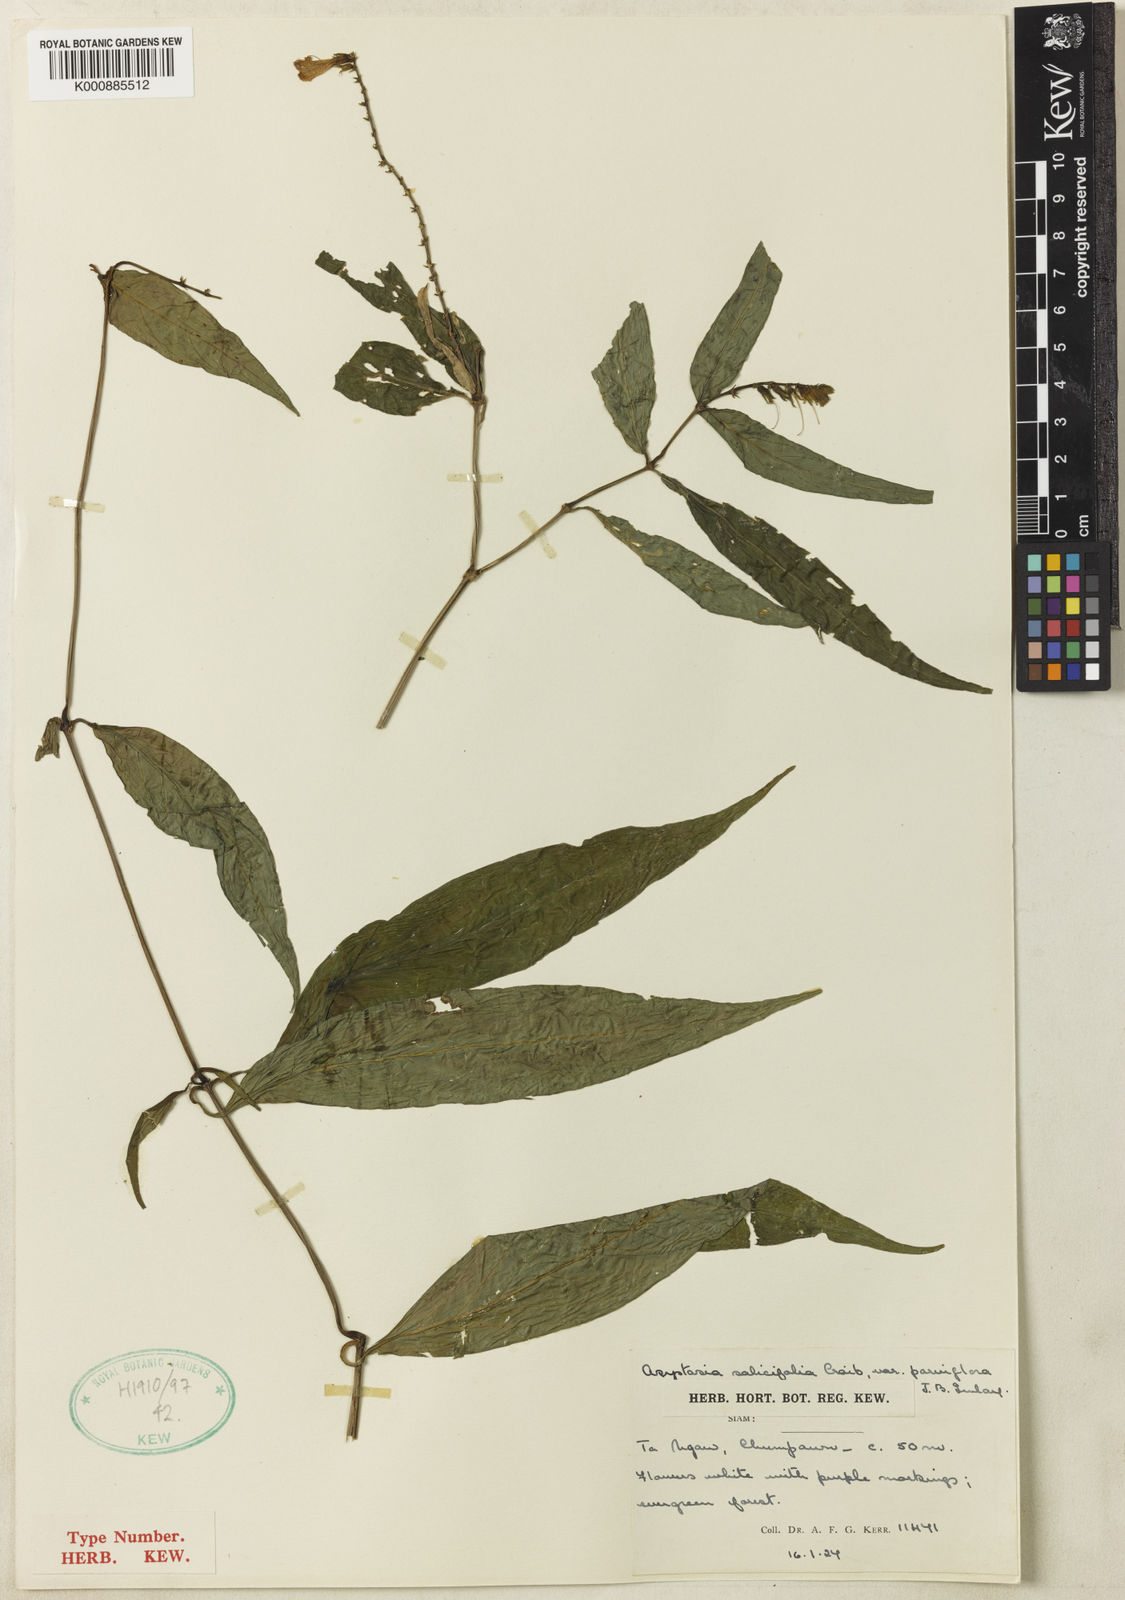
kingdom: Plantae
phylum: Tracheophyta
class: Magnoliopsida
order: Lamiales
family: Acanthaceae
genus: Asystasia
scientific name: Asystasia nemorum
